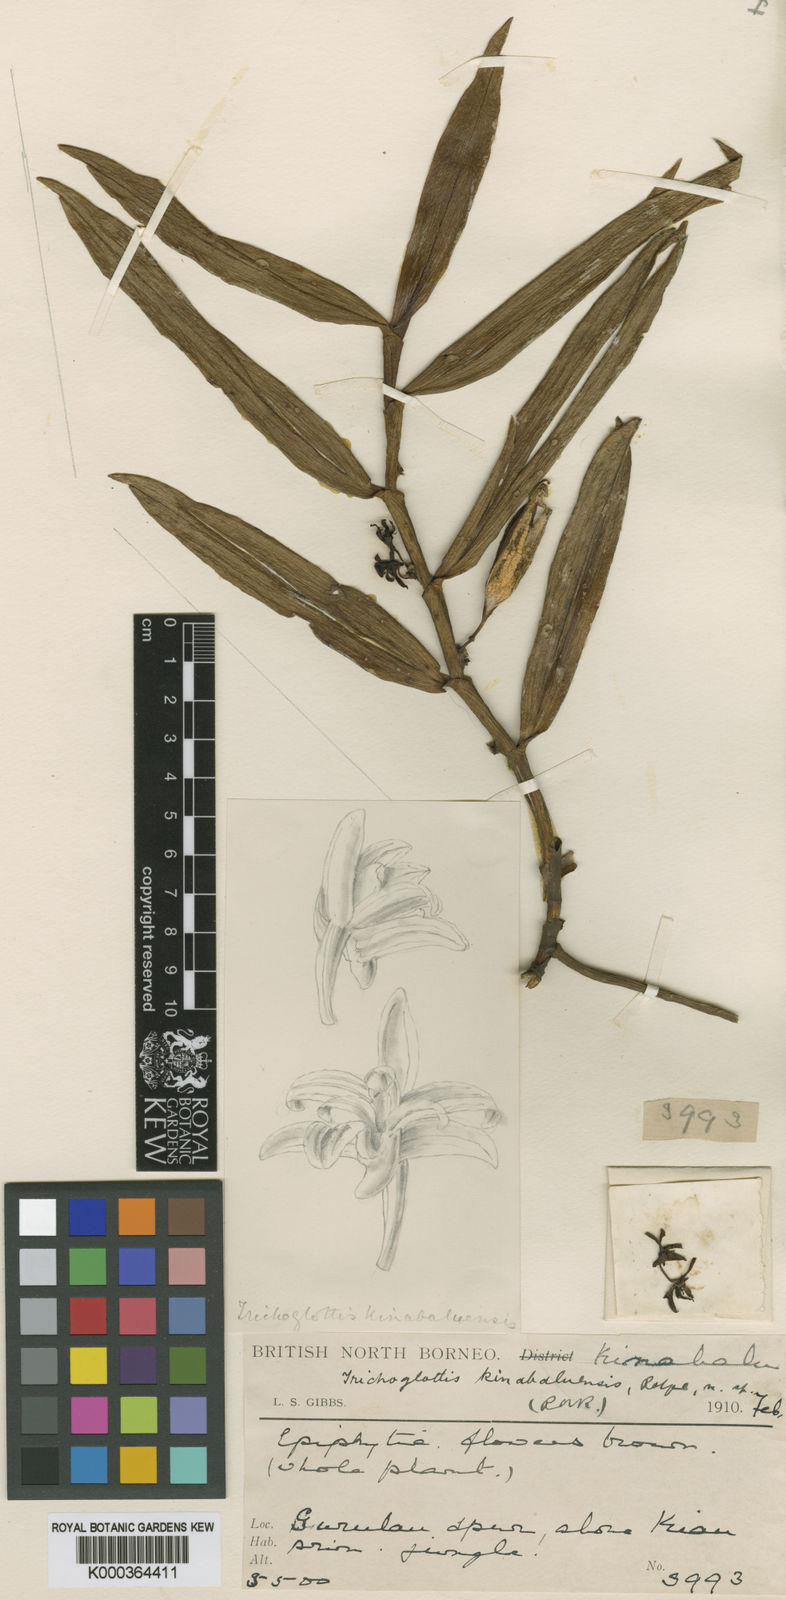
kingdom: Plantae
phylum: Tracheophyta
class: Liliopsida
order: Asparagales
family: Orchidaceae
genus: Trichoglottis
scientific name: Trichoglottis kinabaluensis
